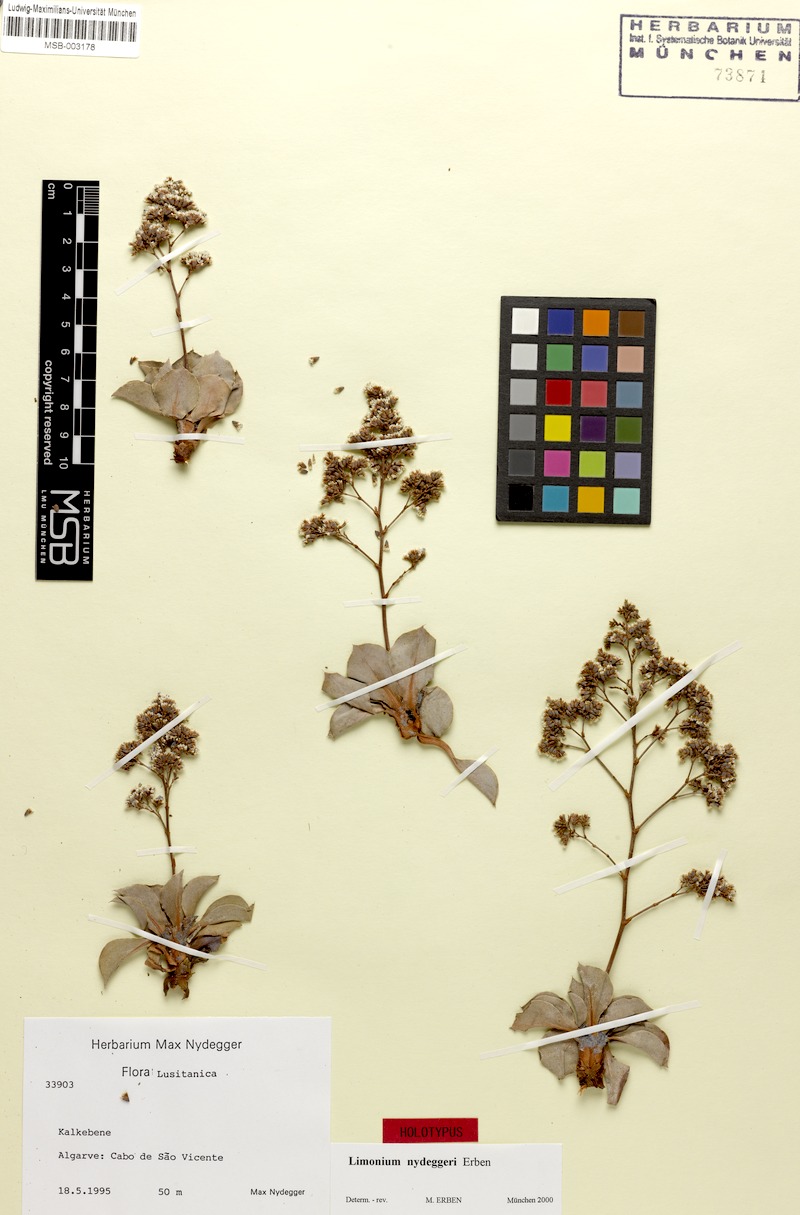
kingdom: Plantae
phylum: Tracheophyta
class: Magnoliopsida
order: Caryophyllales
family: Plumbaginaceae
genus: Limonium
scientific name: Limonium auriculifolium
